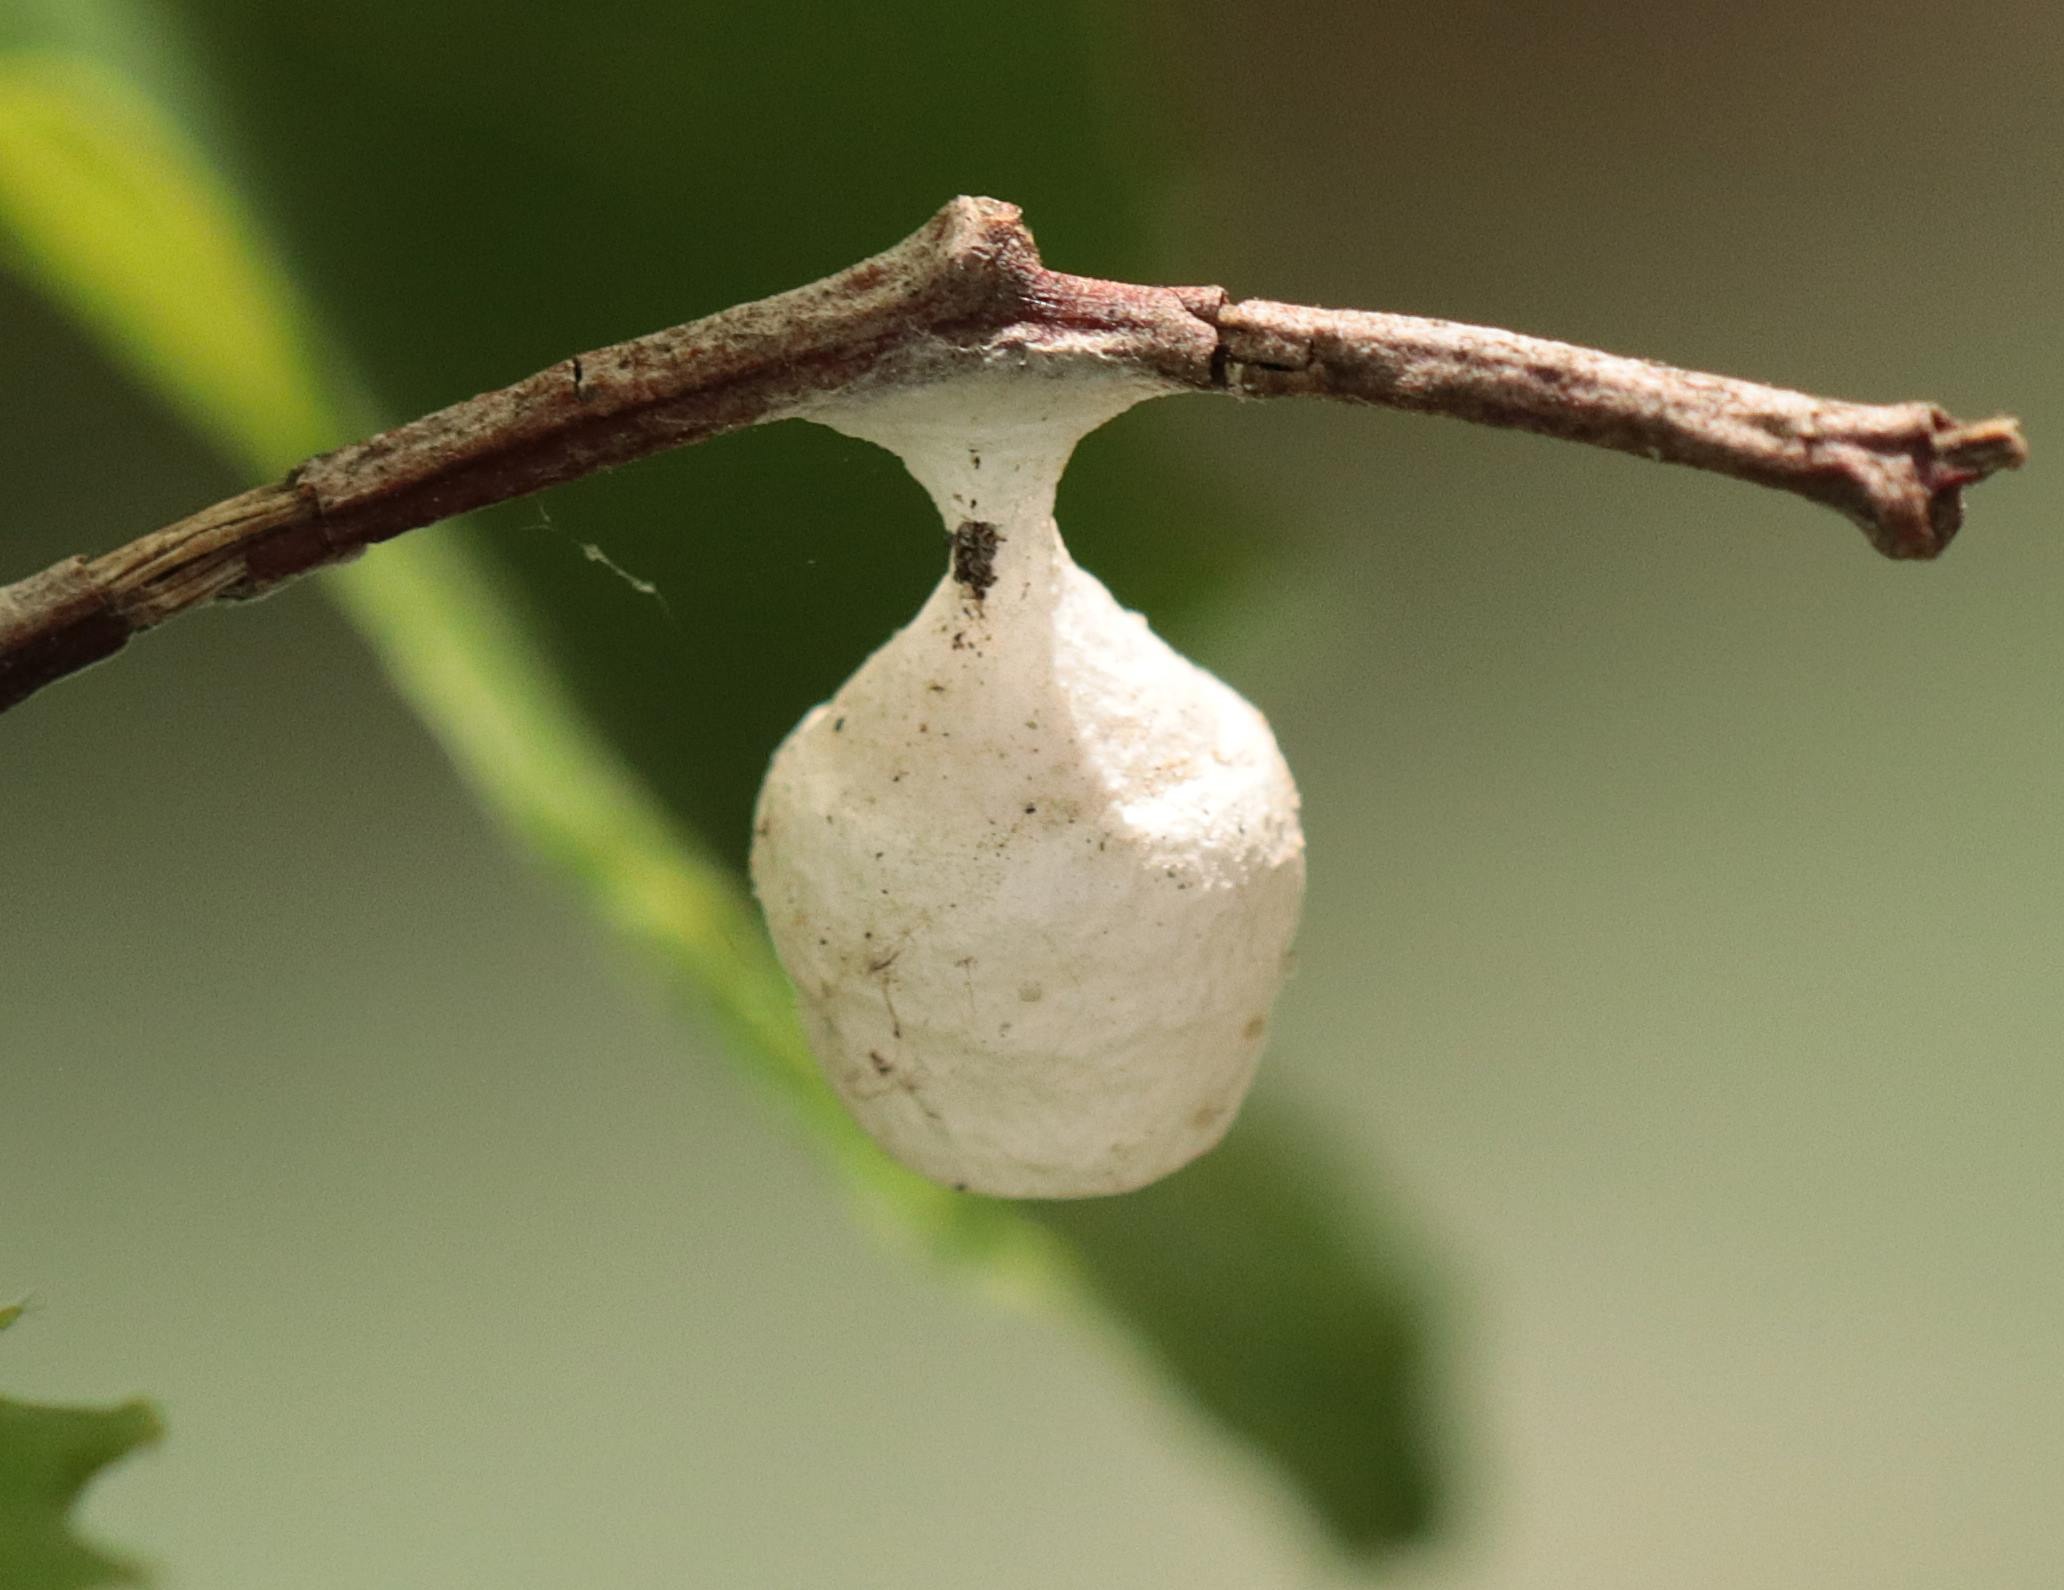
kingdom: Animalia
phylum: Arthropoda
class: Arachnida
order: Araneae
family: Liocranidae
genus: Agroeca
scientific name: Agroeca
